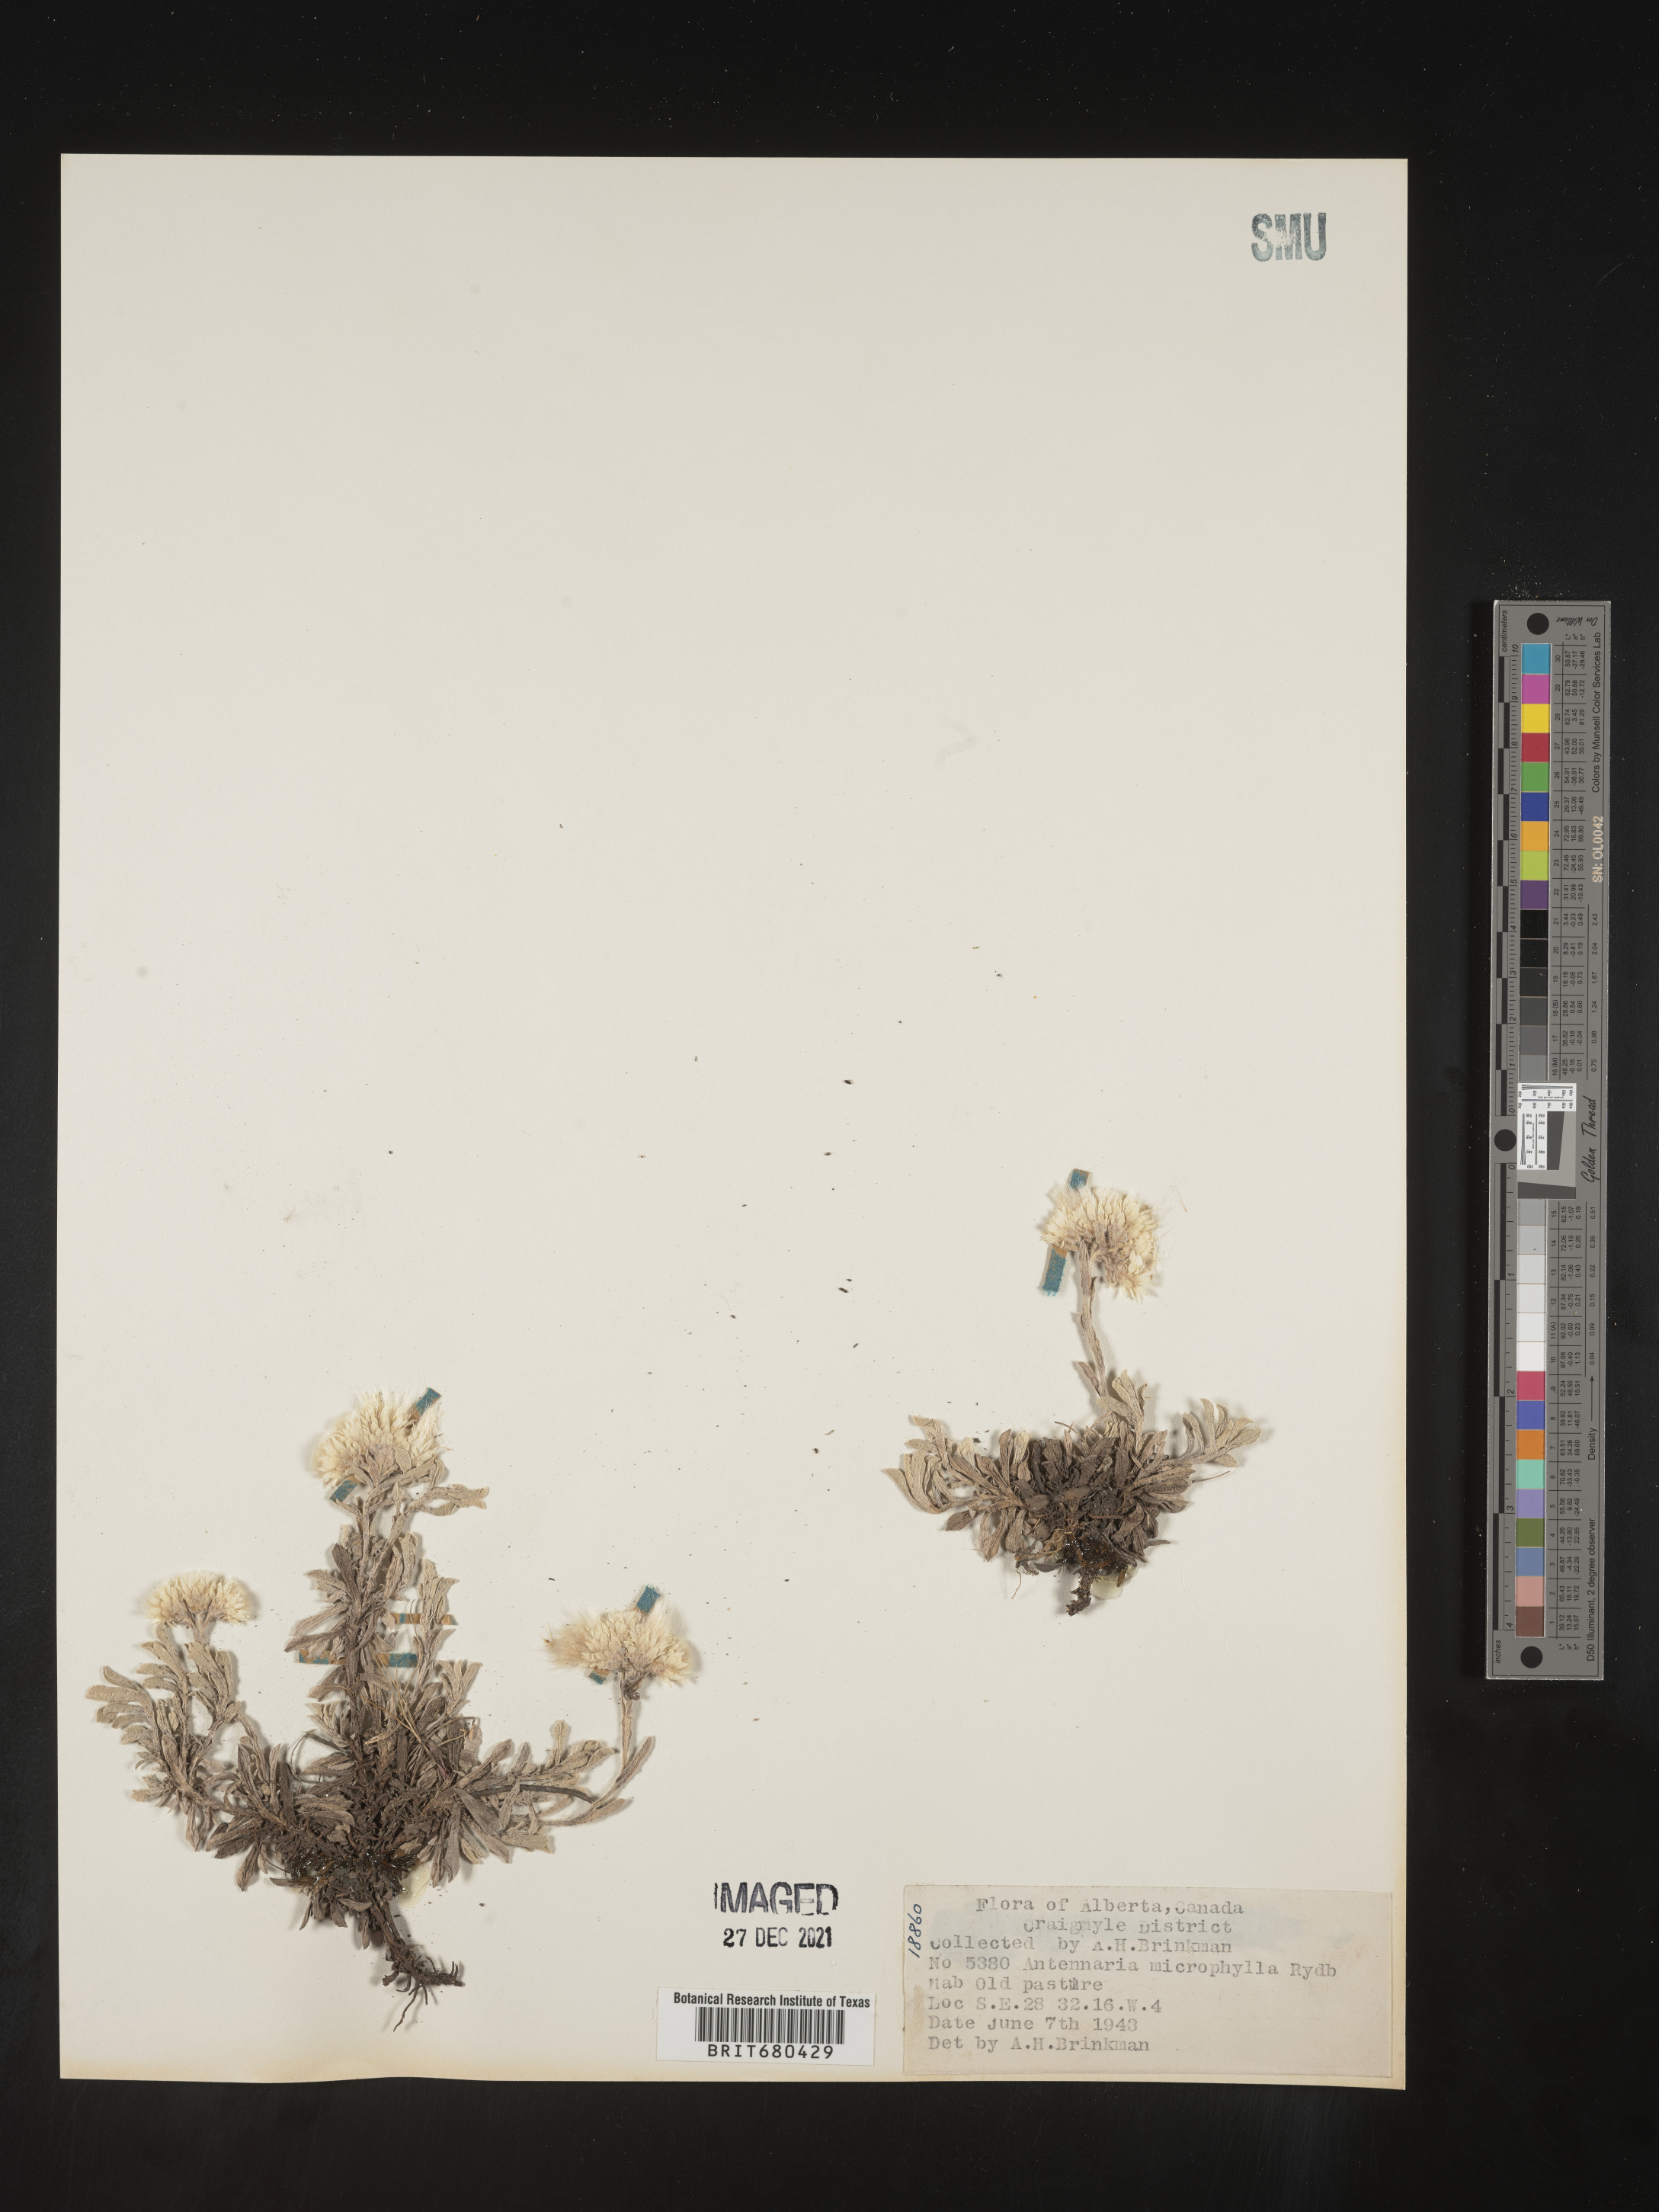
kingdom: Plantae
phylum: Tracheophyta
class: Magnoliopsida
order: Asterales
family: Asteraceae
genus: Antennaria
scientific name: Antennaria rosea
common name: Rosy pussytoes
